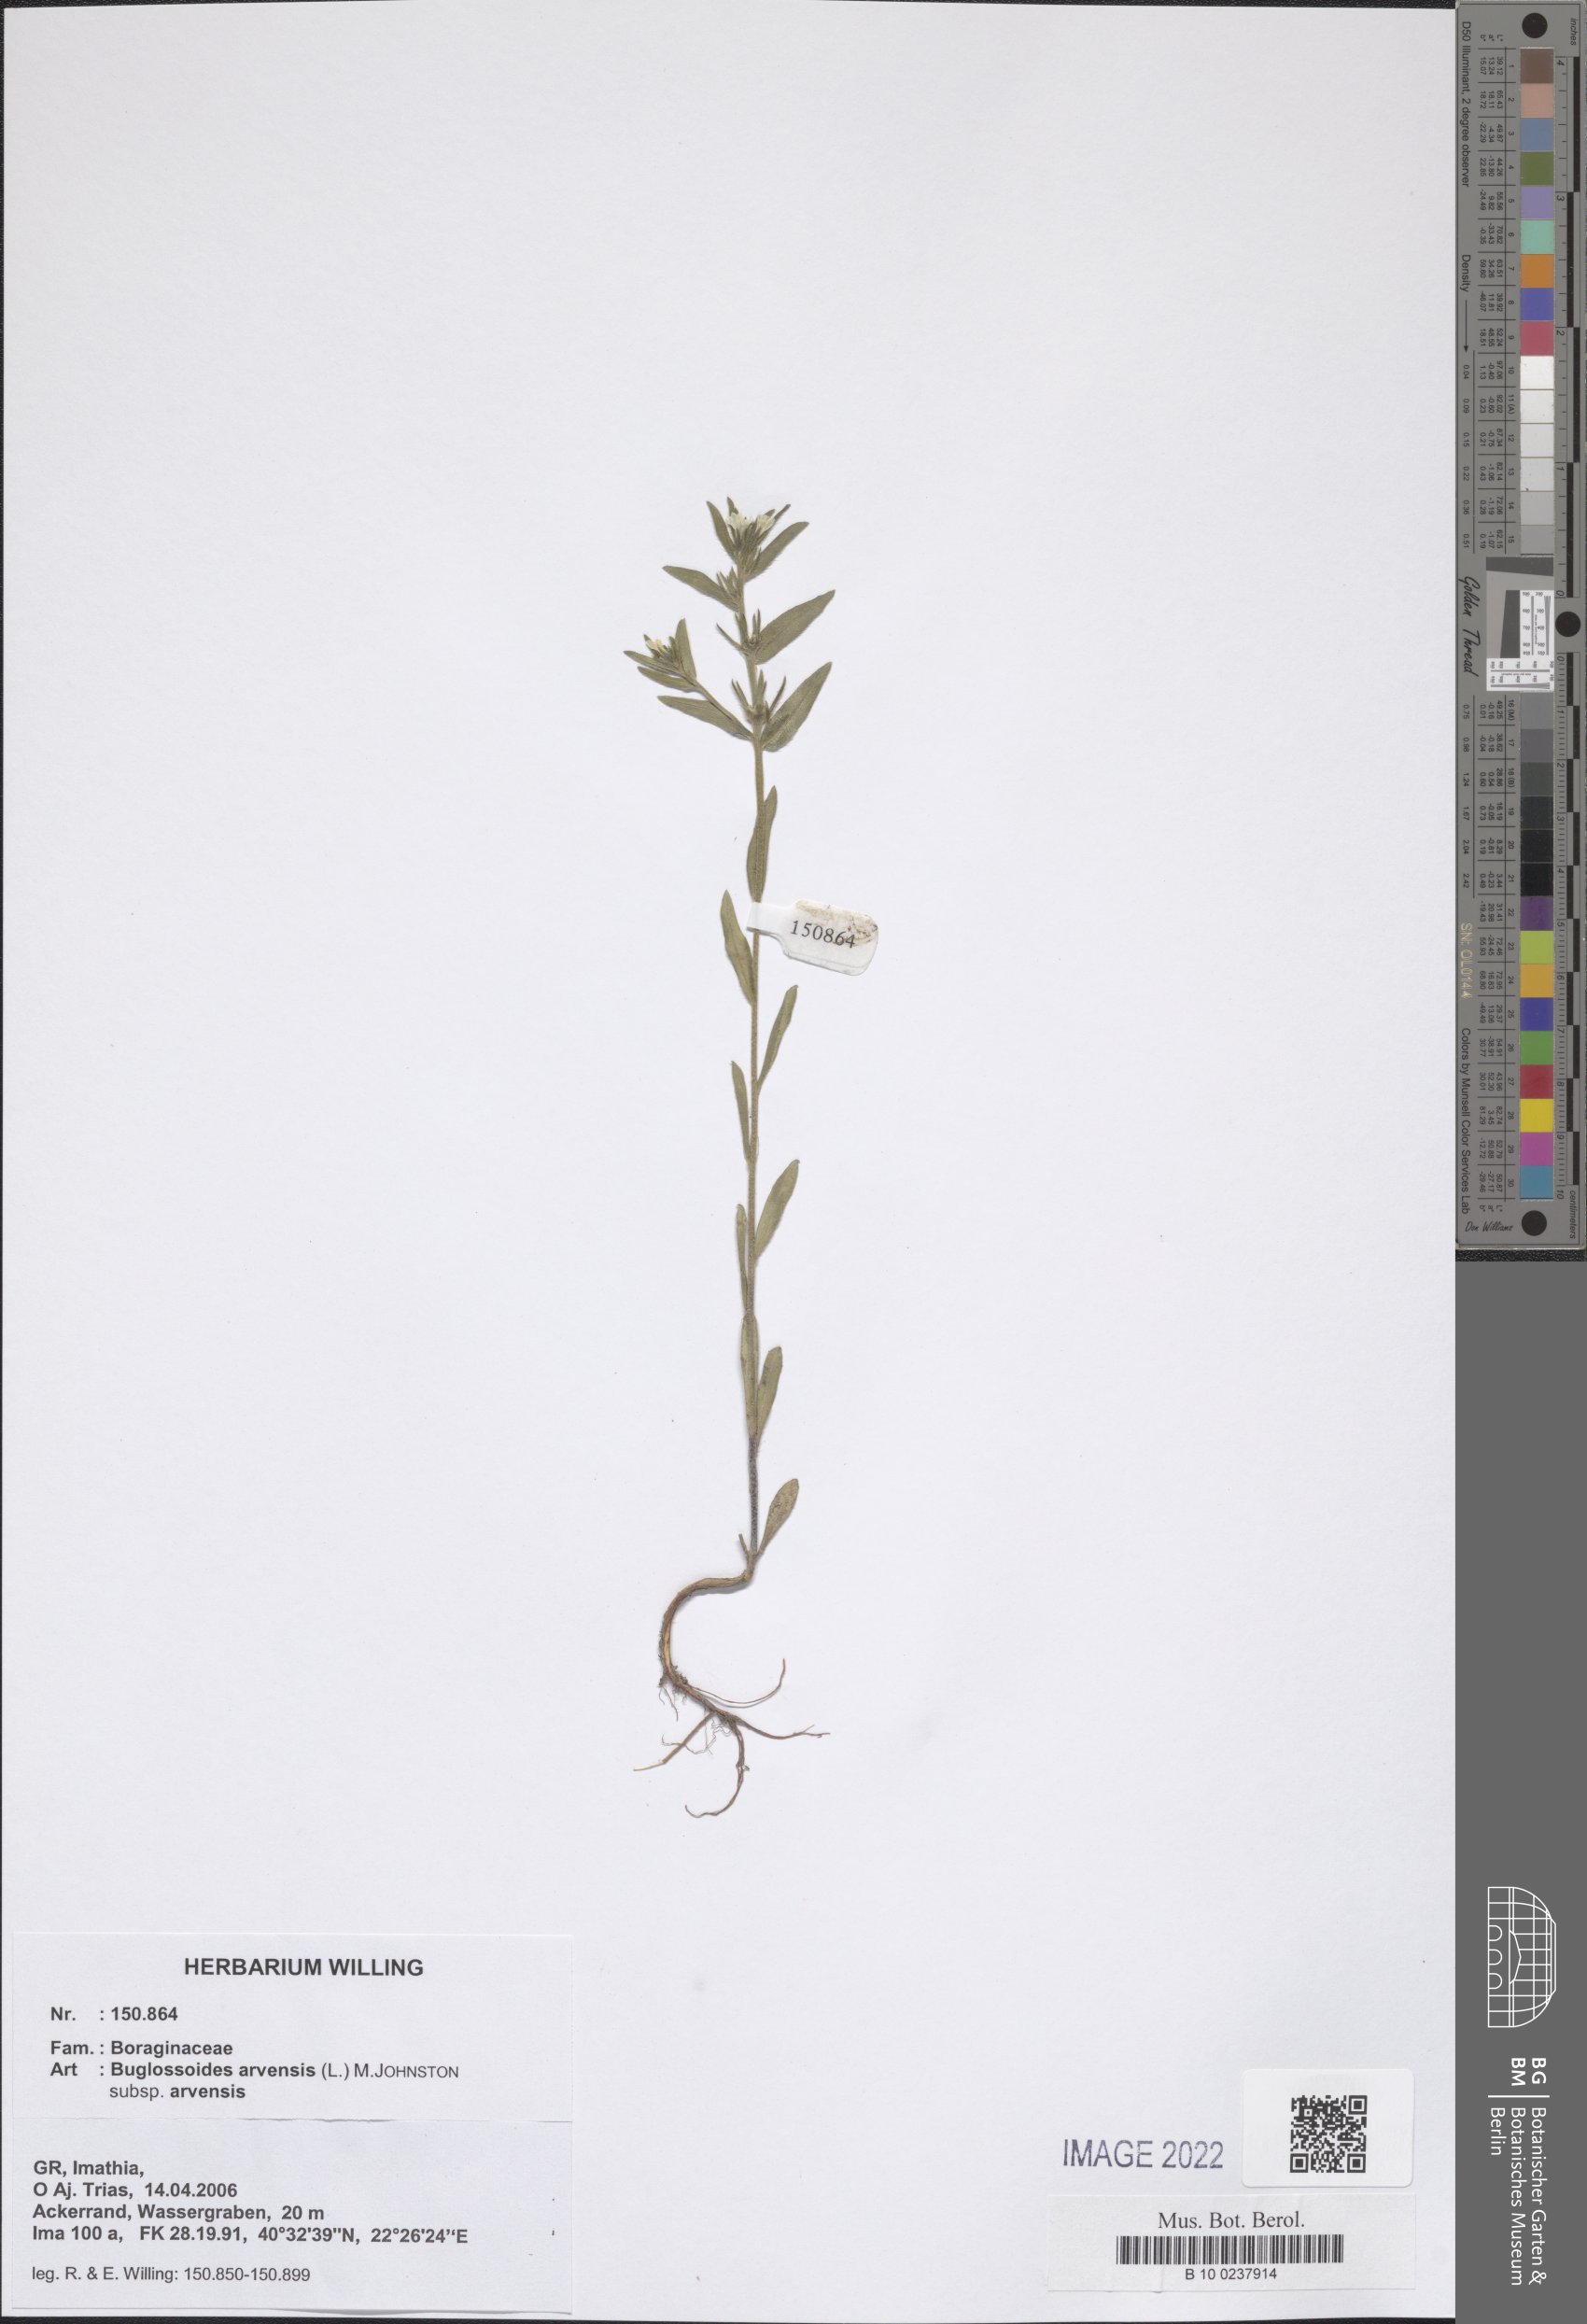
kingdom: Plantae
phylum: Tracheophyta
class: Magnoliopsida
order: Boraginales
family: Boraginaceae
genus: Buglossoides
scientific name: Buglossoides arvensis
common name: Corn gromwell
